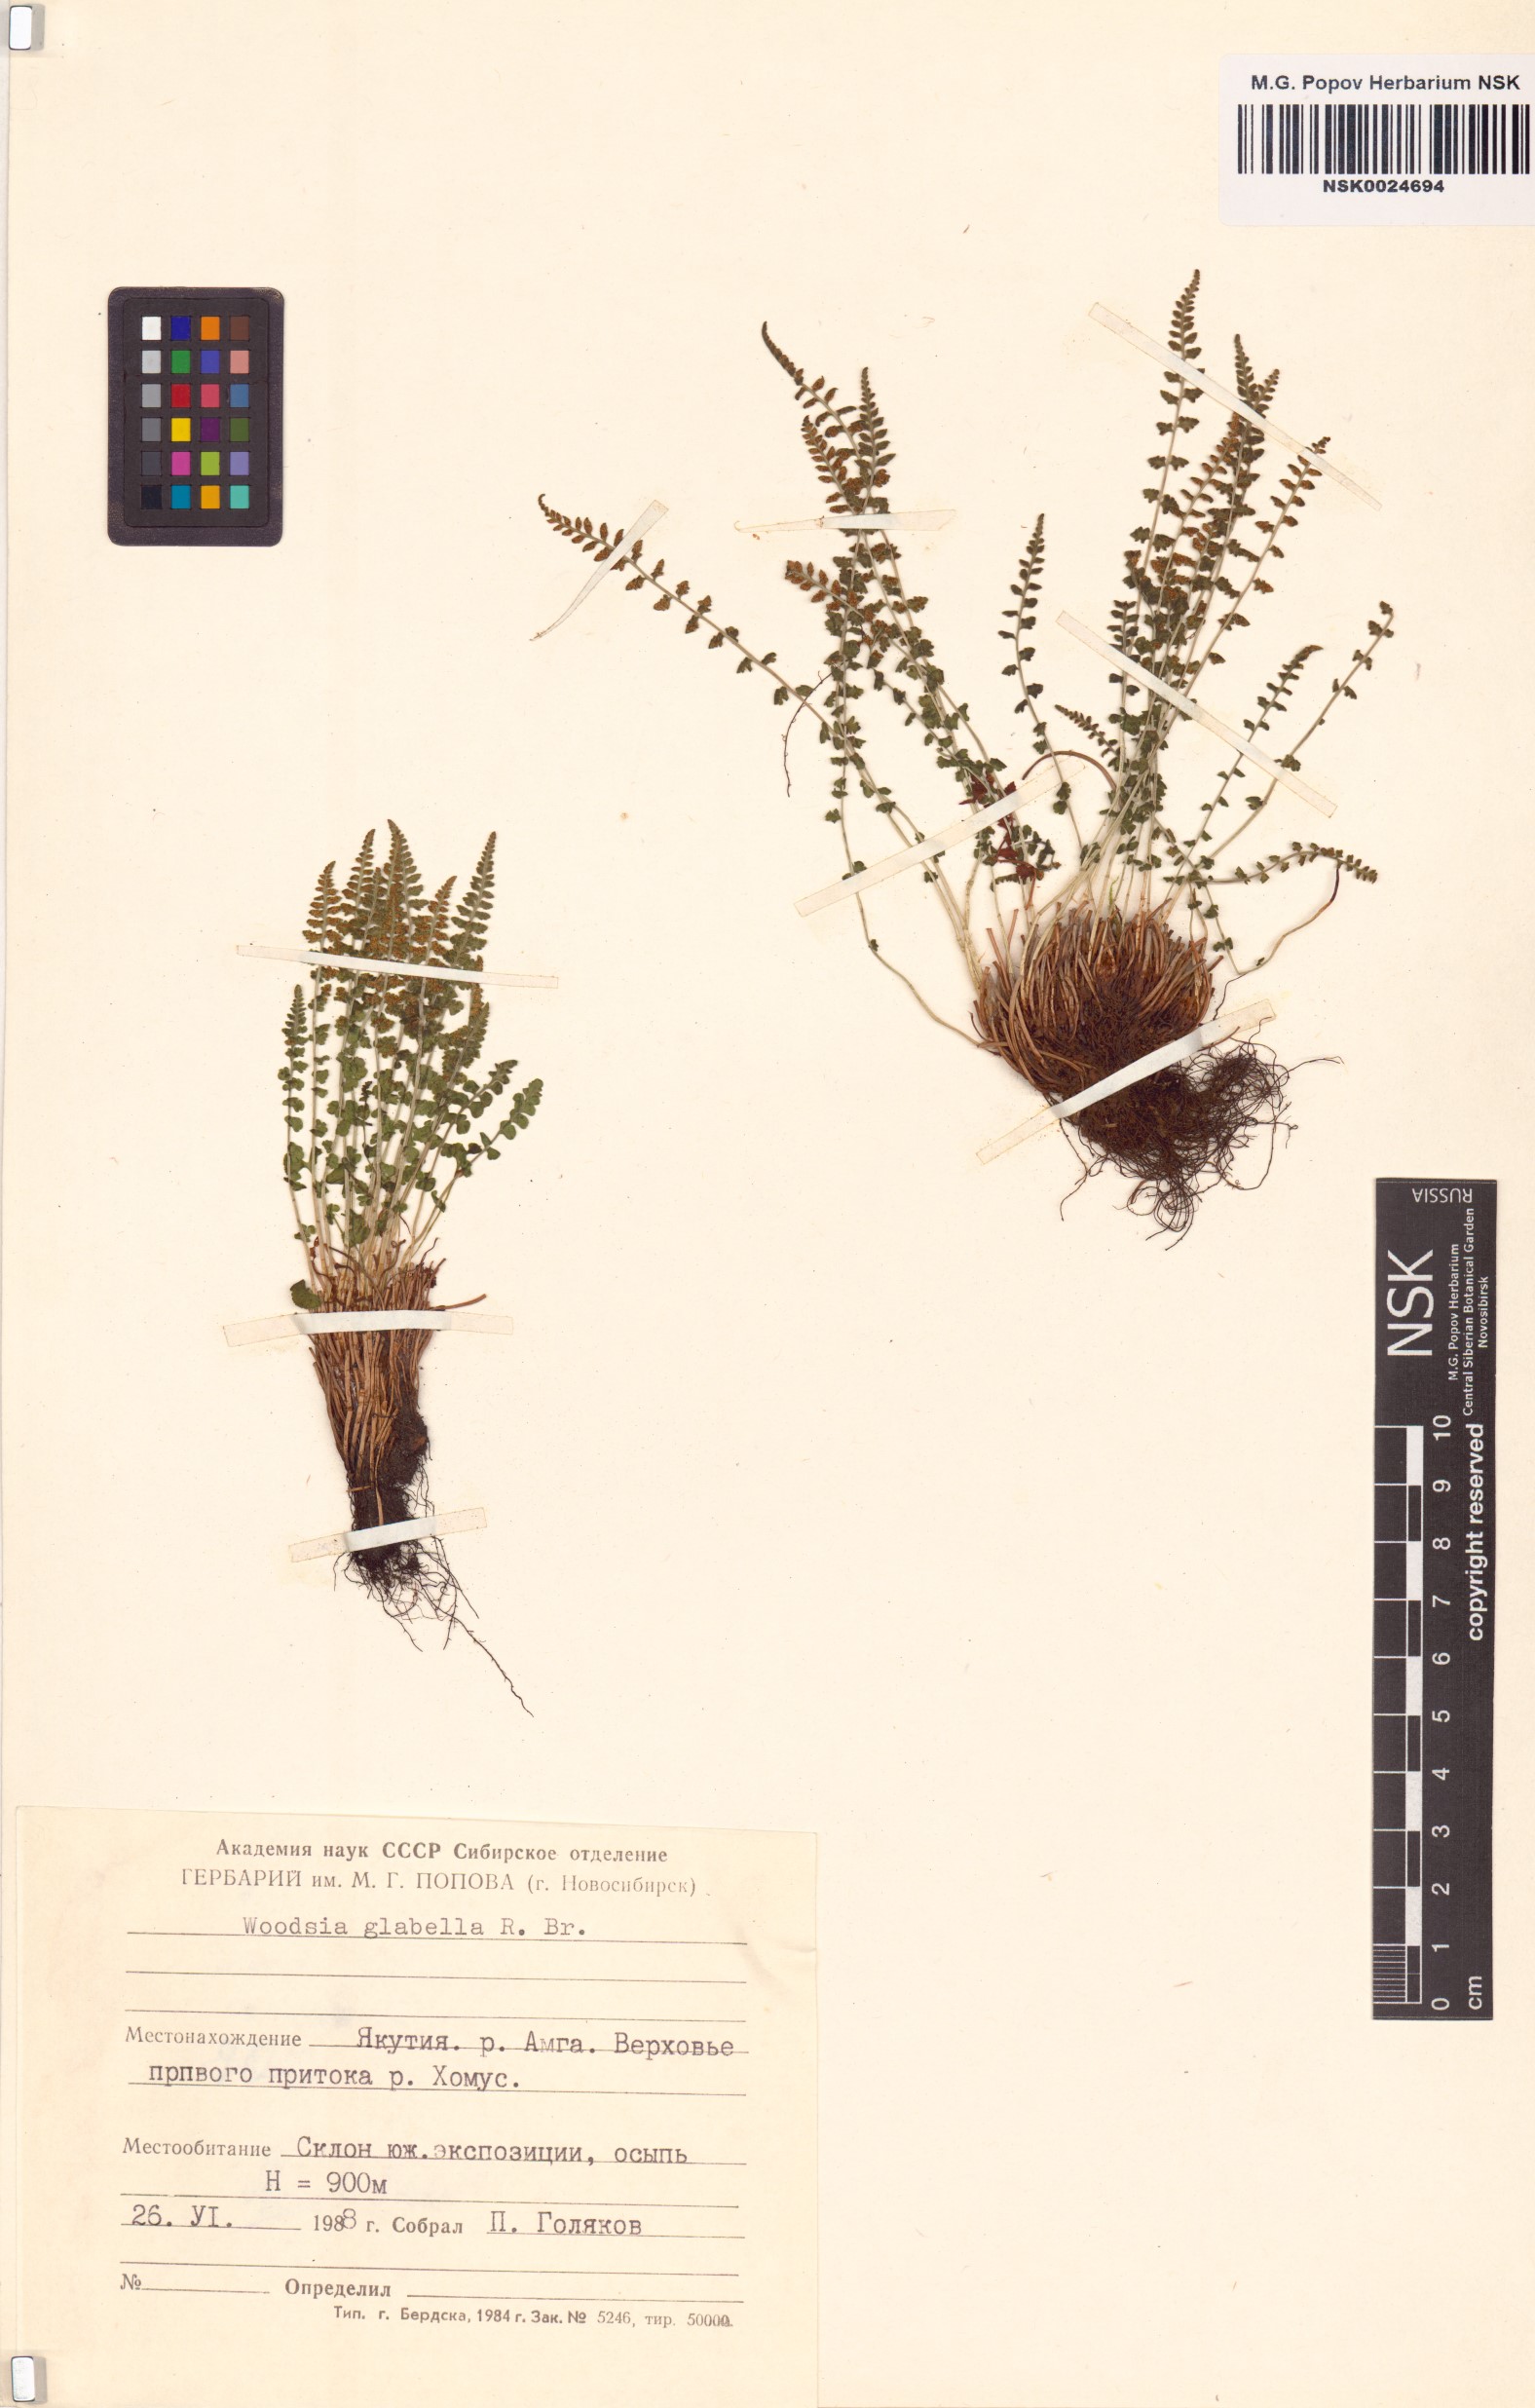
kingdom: Plantae
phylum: Tracheophyta
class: Polypodiopsida
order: Polypodiales
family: Woodsiaceae
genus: Woodsia
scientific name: Woodsia glabella
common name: Smooth woodsia
